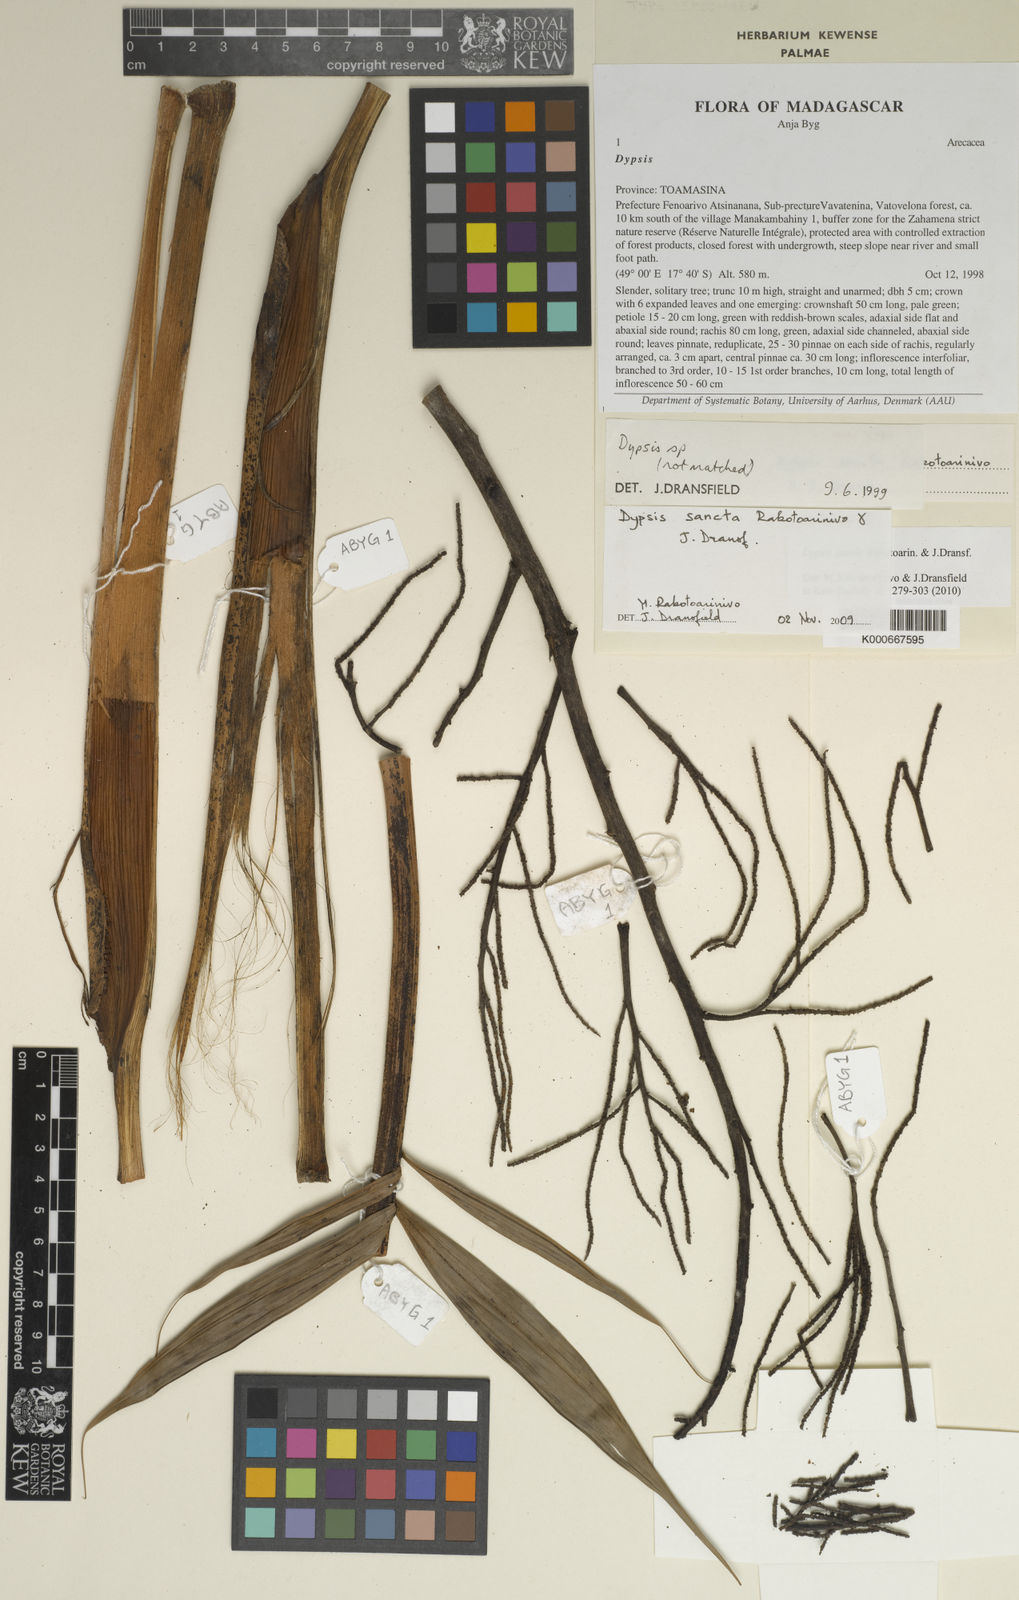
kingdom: Plantae
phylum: Tracheophyta
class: Liliopsida
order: Arecales
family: Arecaceae
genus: Dypsis
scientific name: Dypsis sancta
